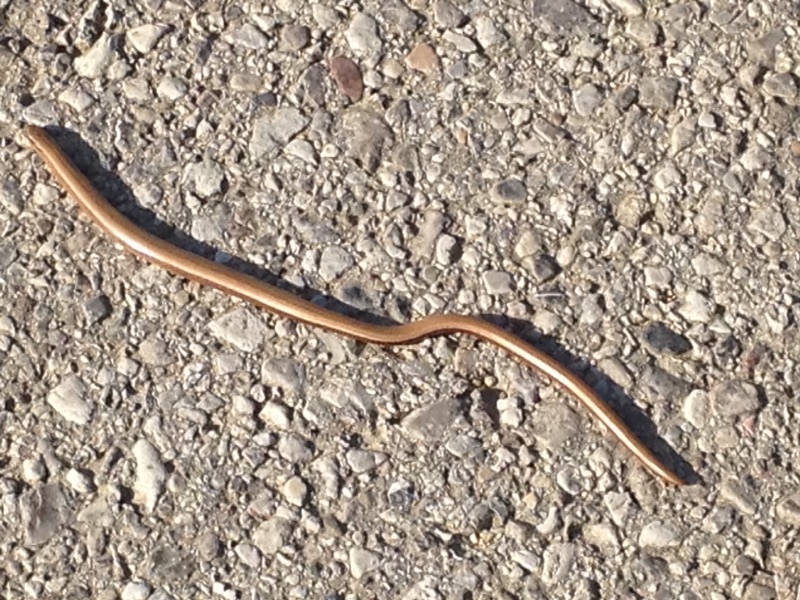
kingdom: Animalia
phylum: Chordata
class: Squamata
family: Anguidae
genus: Anguis
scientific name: Anguis fragilis
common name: Slow worm
